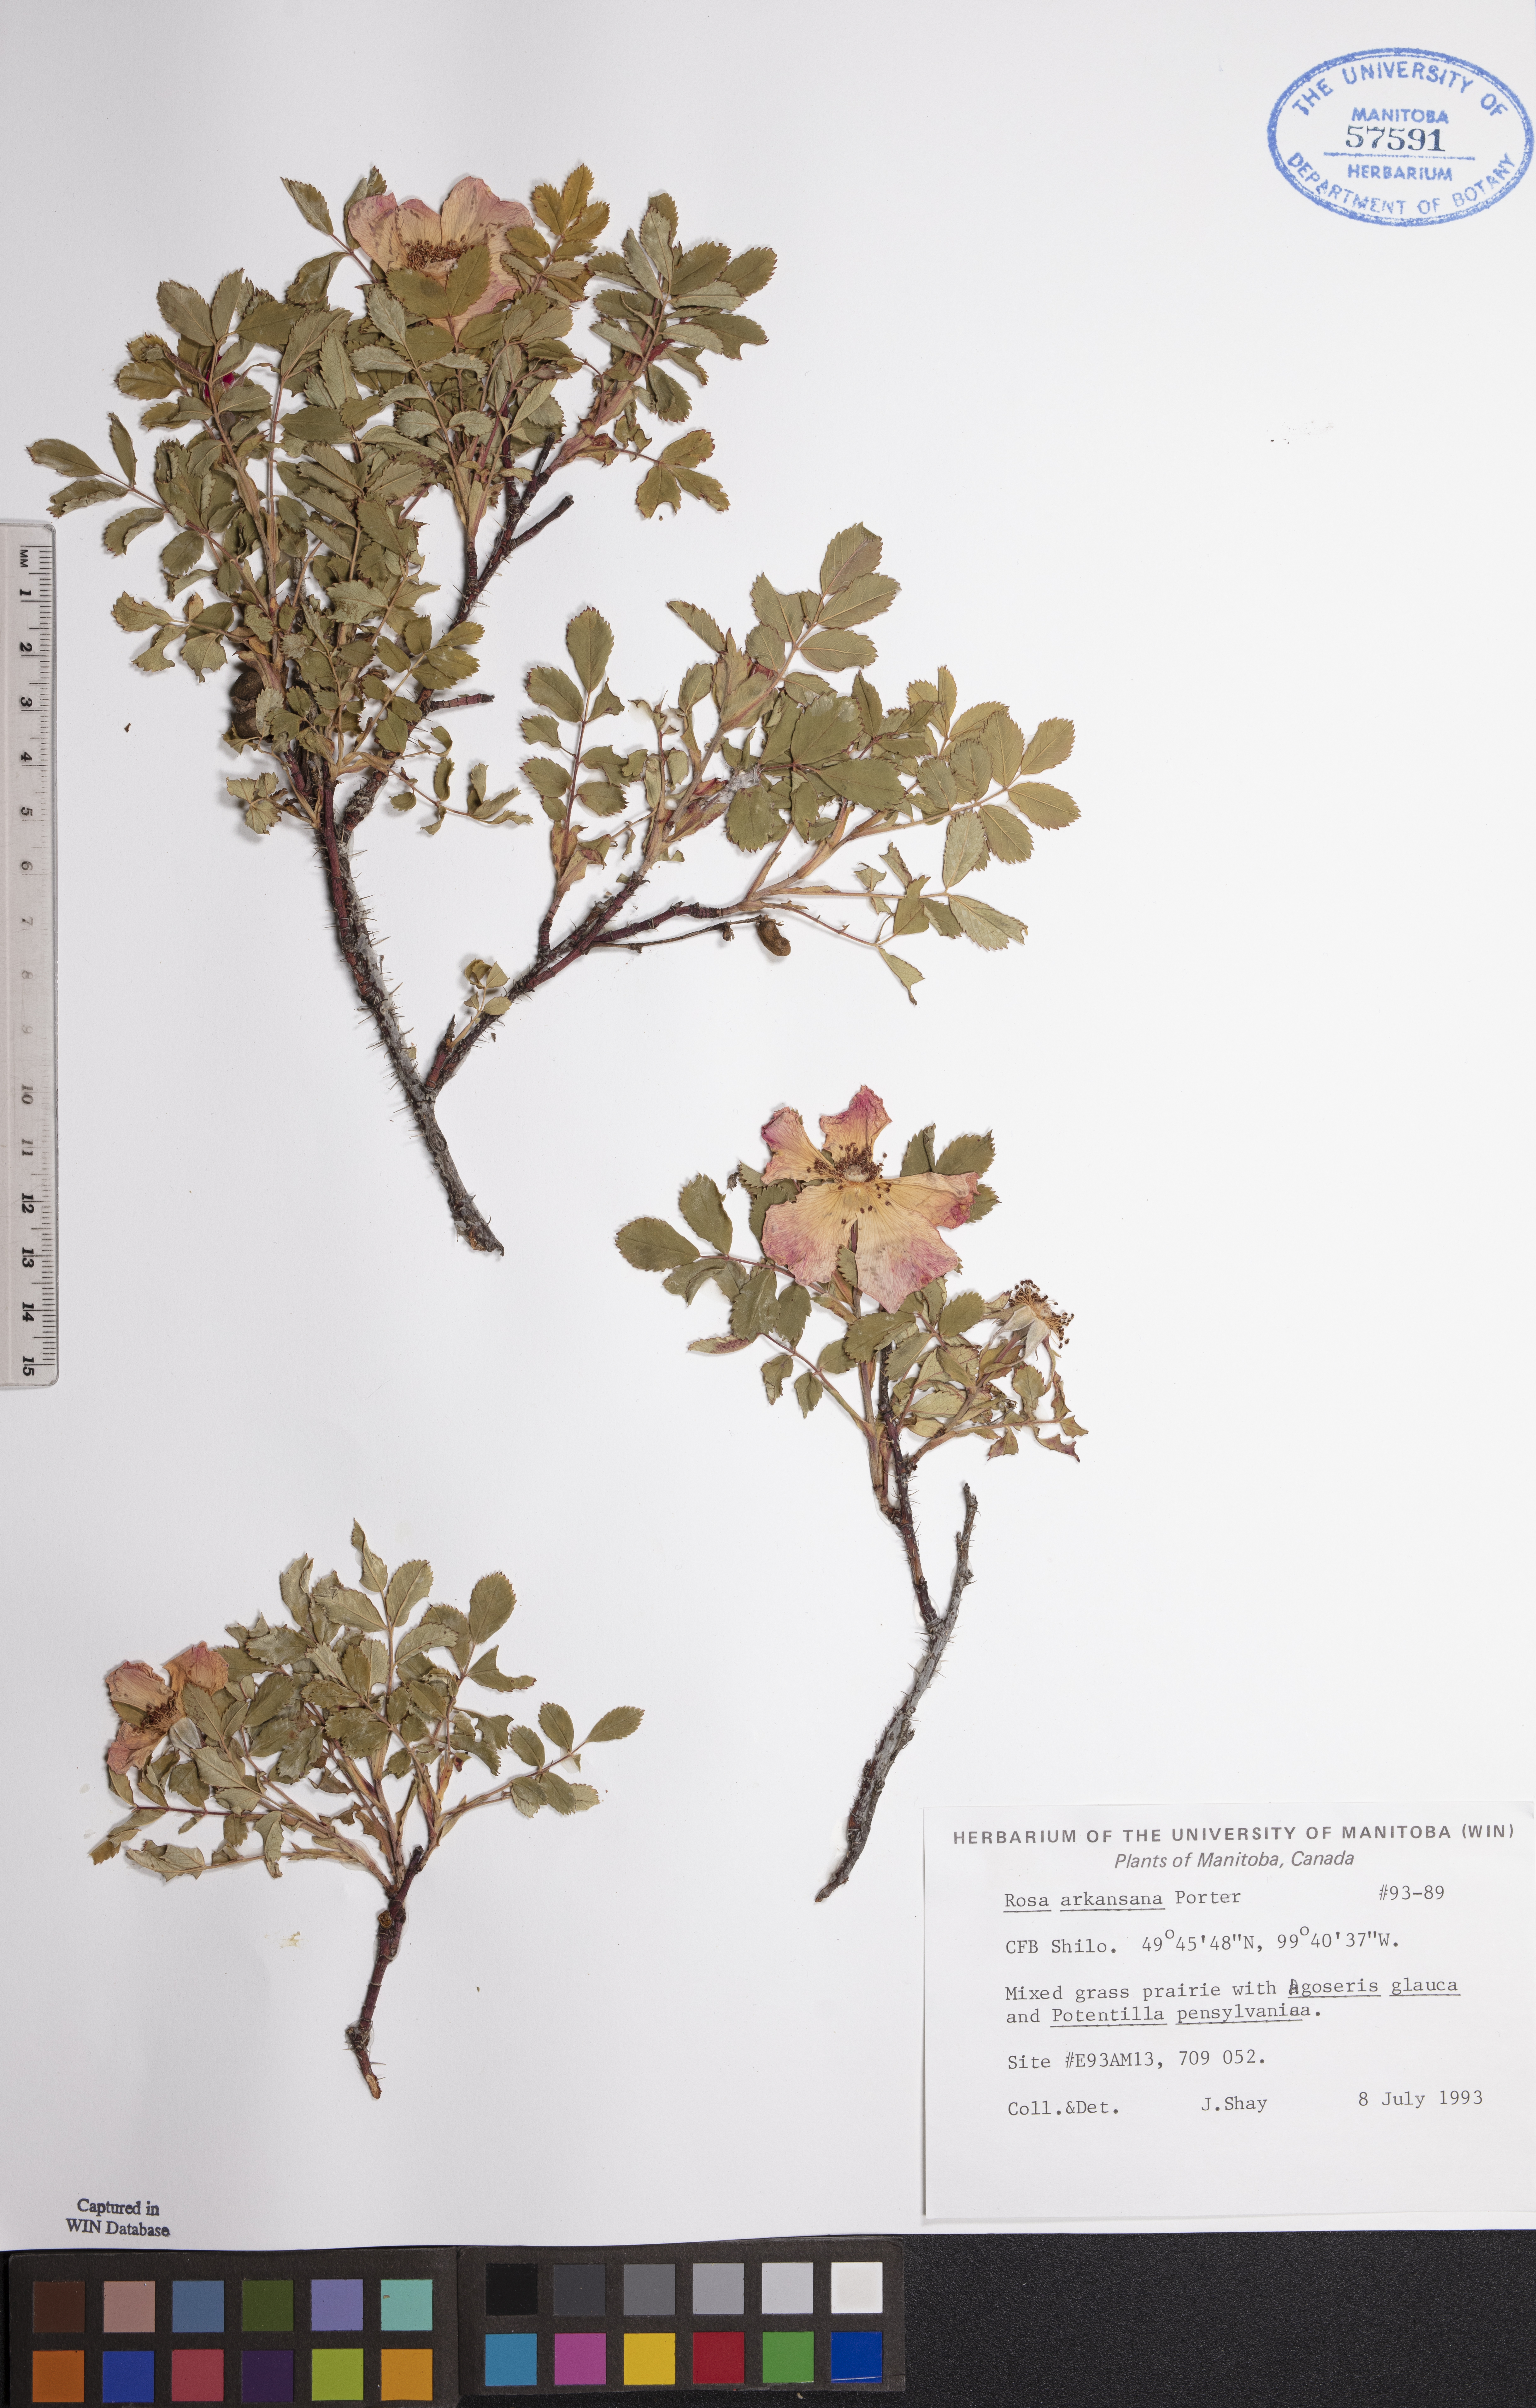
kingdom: Plantae
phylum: Tracheophyta
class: Magnoliopsida
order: Rosales
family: Rosaceae
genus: Rosa
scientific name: Rosa arkansana
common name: Prairie rose
